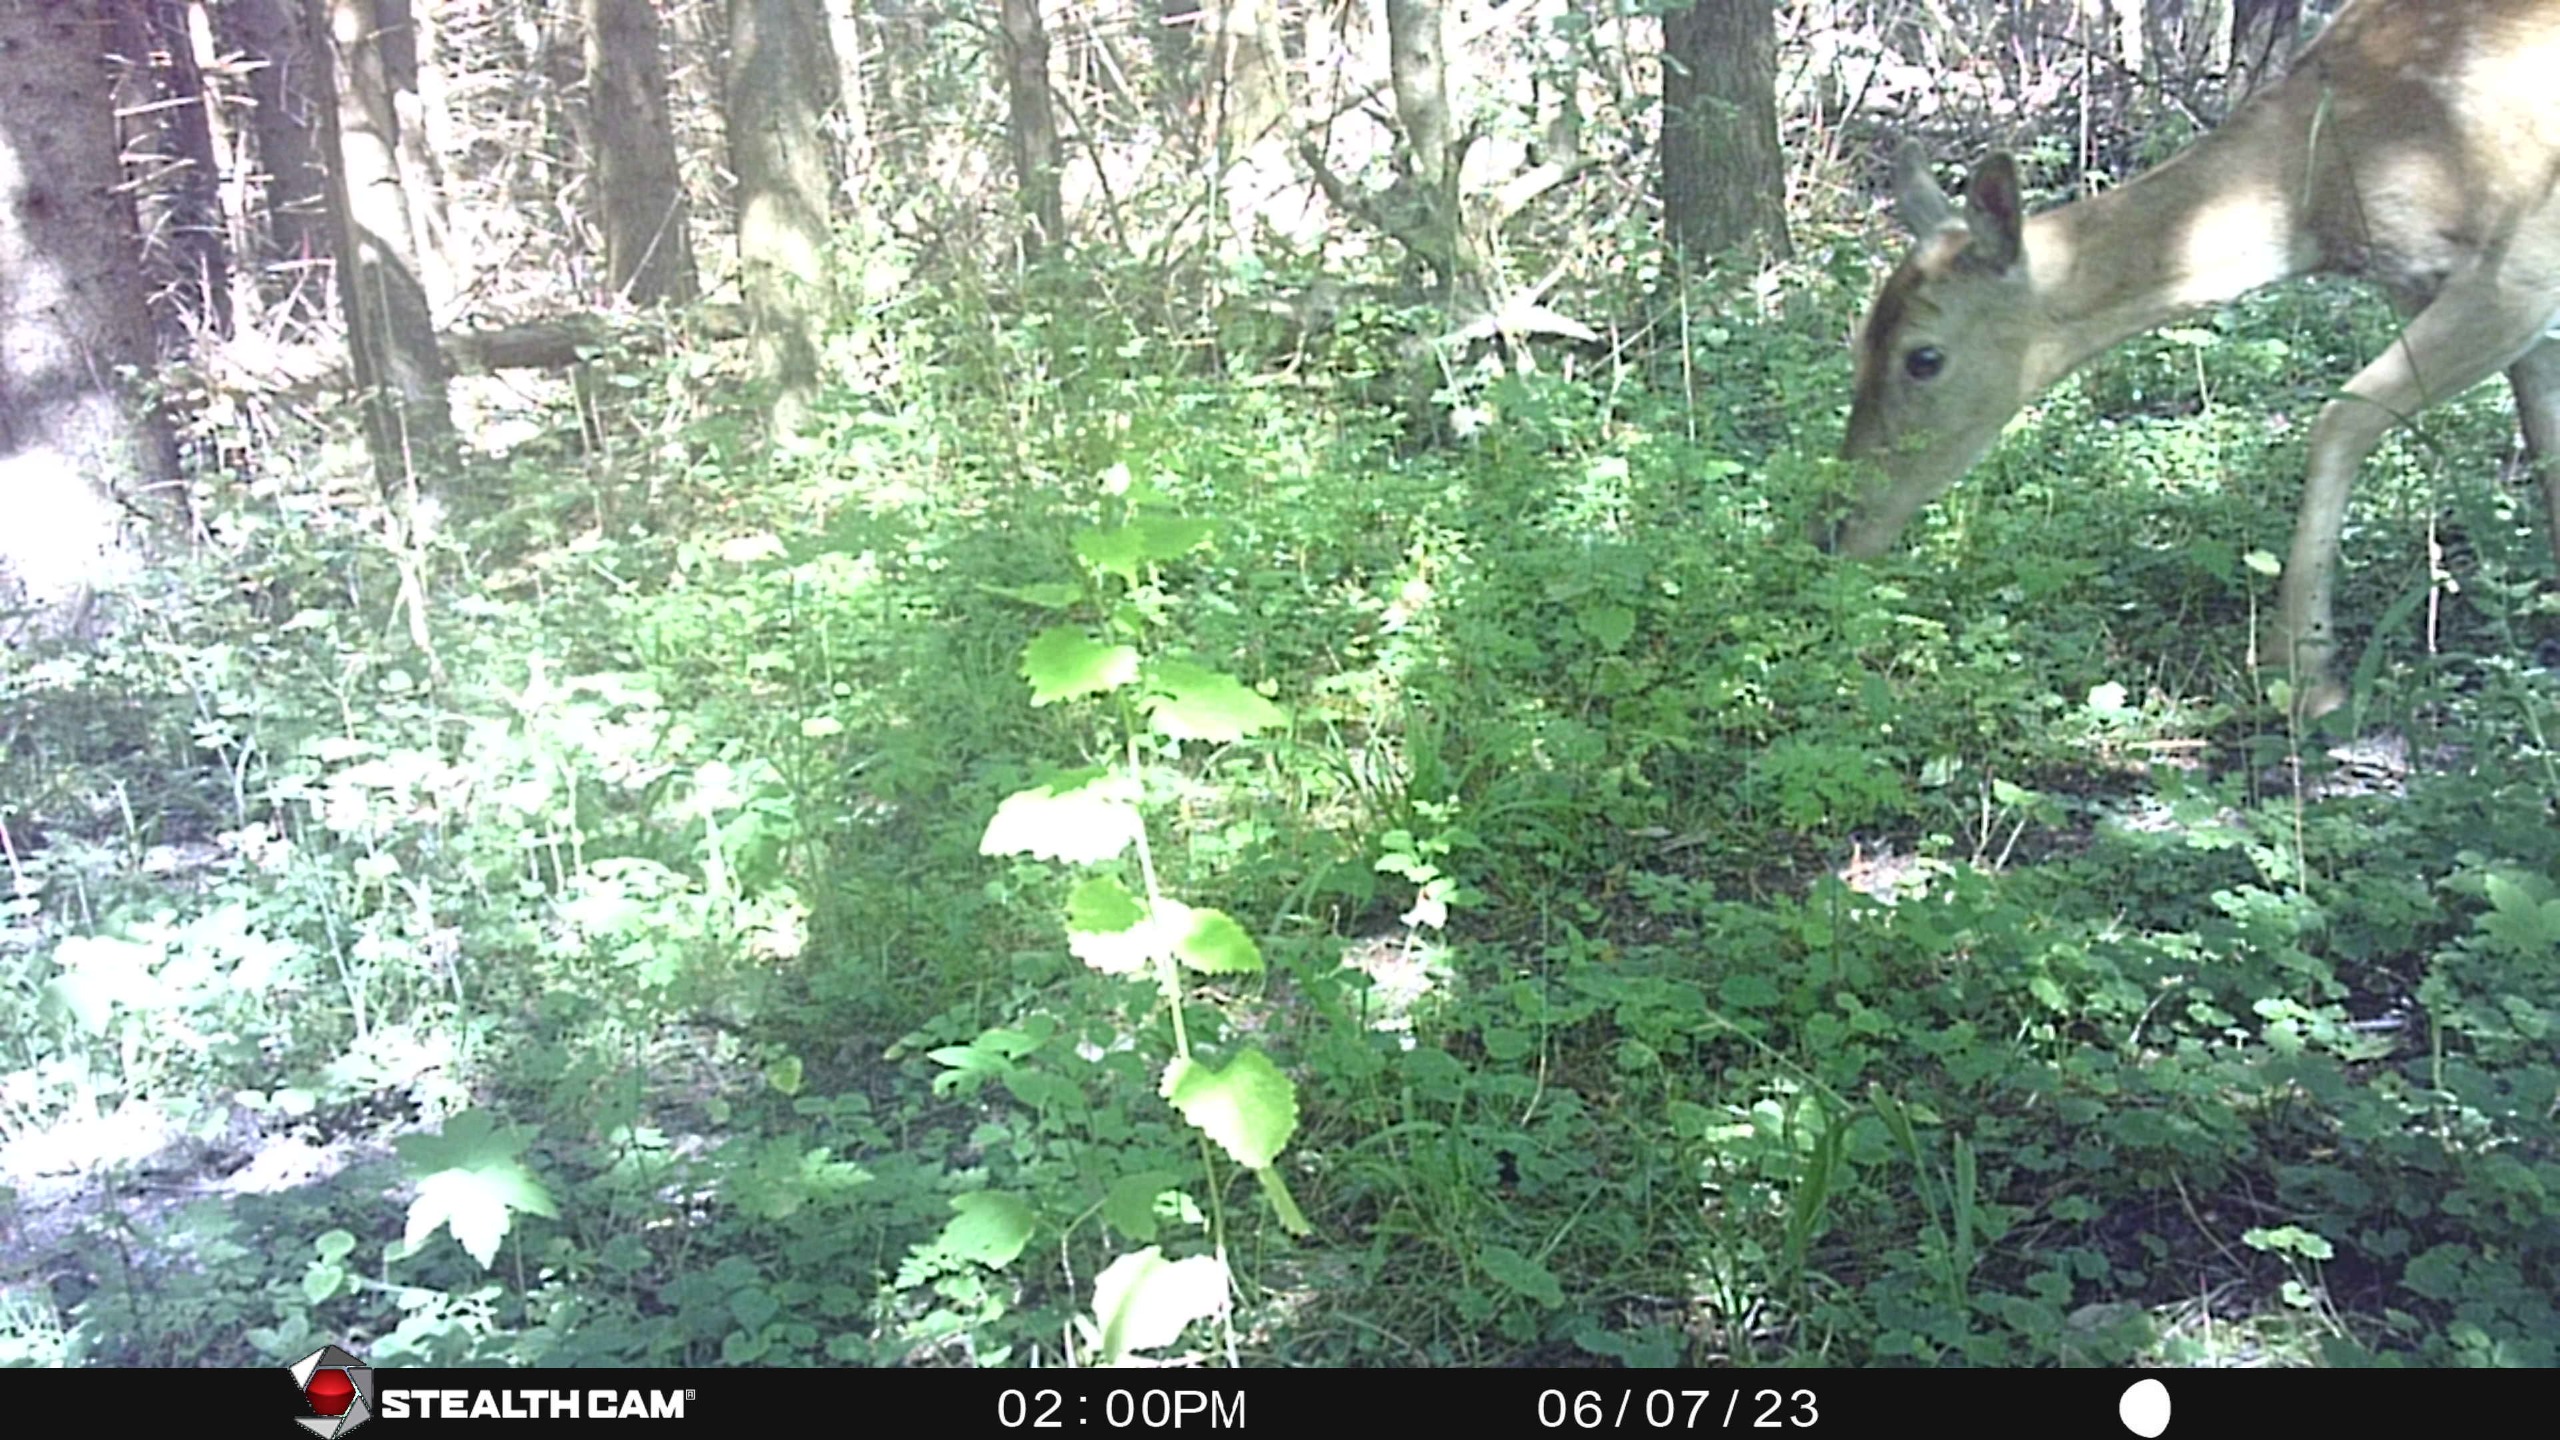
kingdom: Animalia
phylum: Chordata
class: Mammalia
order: Artiodactyla
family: Cervidae
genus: Dama
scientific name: Dama dama
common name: Dådyr
